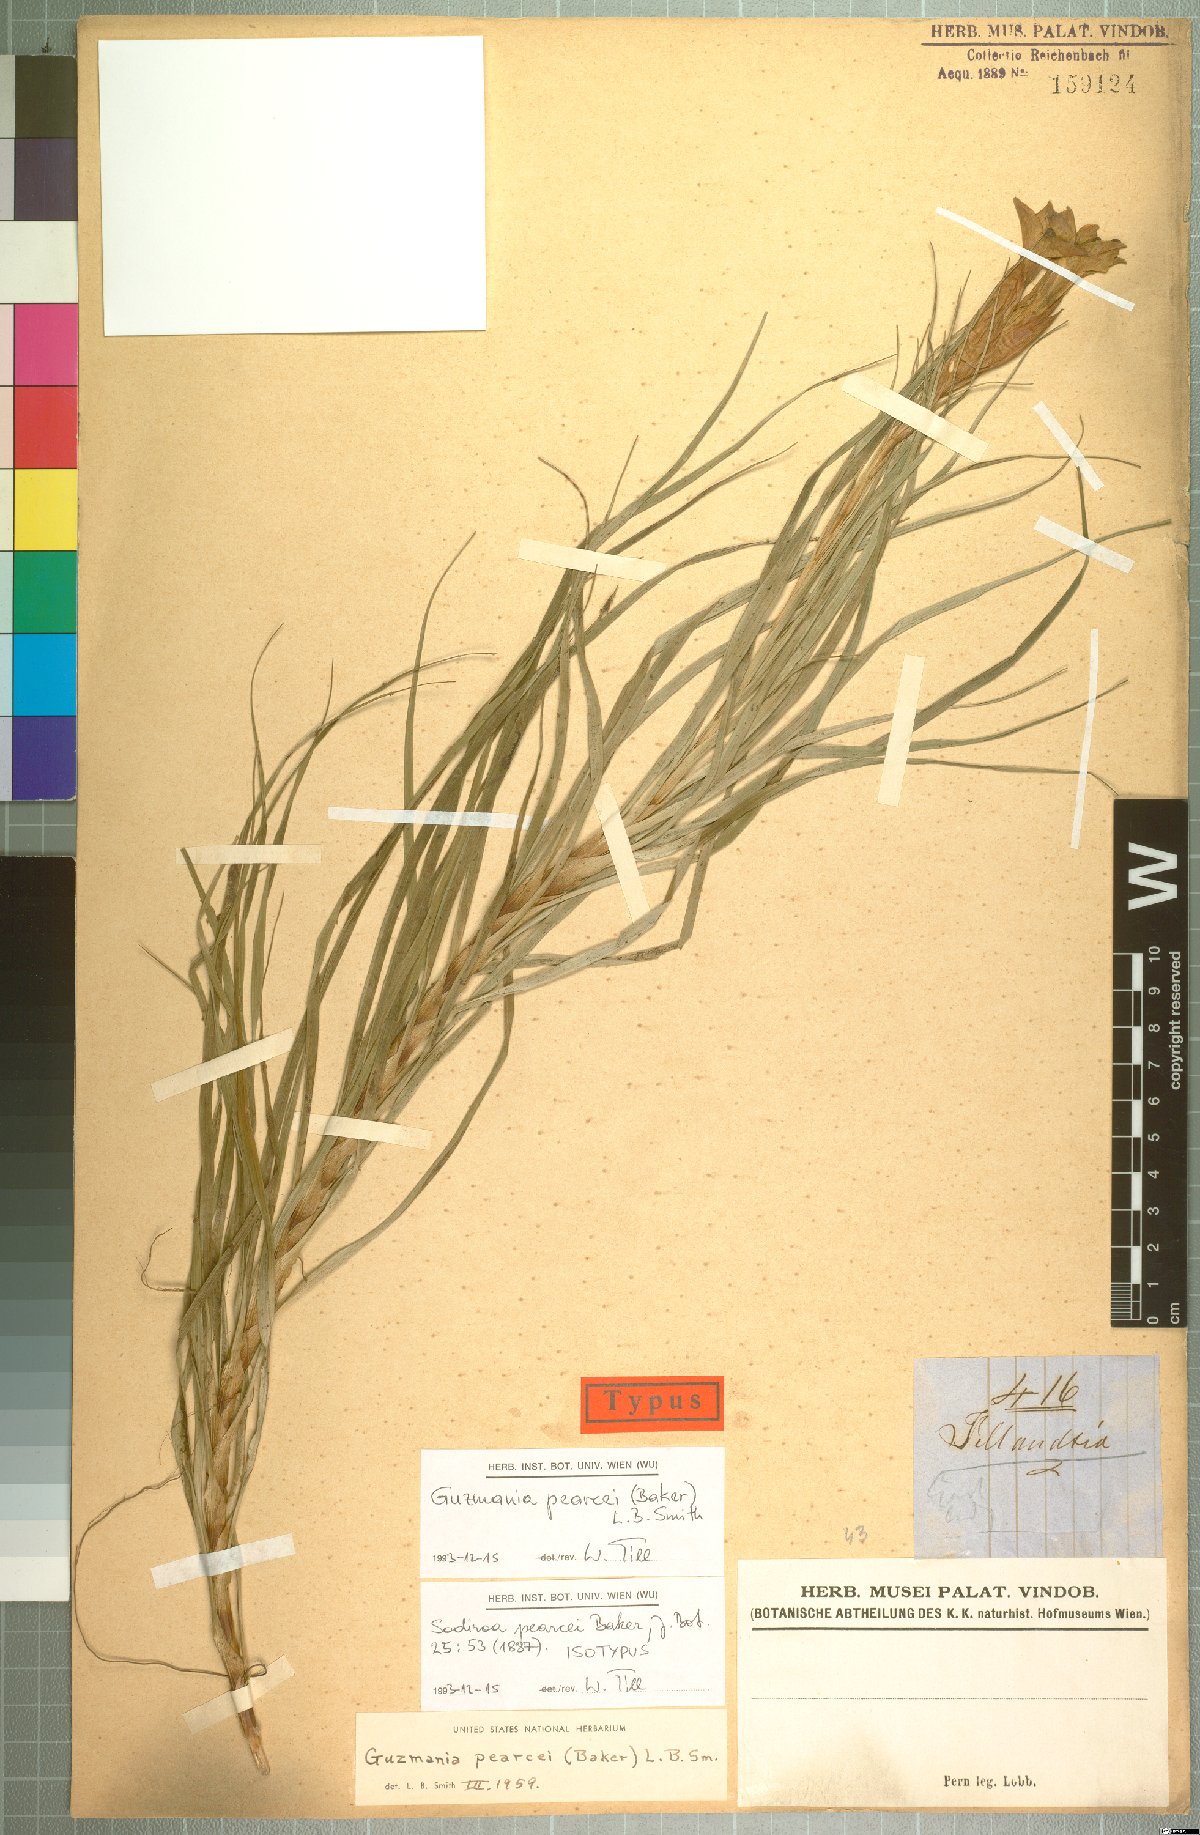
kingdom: Plantae
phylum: Tracheophyta
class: Liliopsida
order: Poales
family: Bromeliaceae
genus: Guzmania
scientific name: Guzmania pearcei
